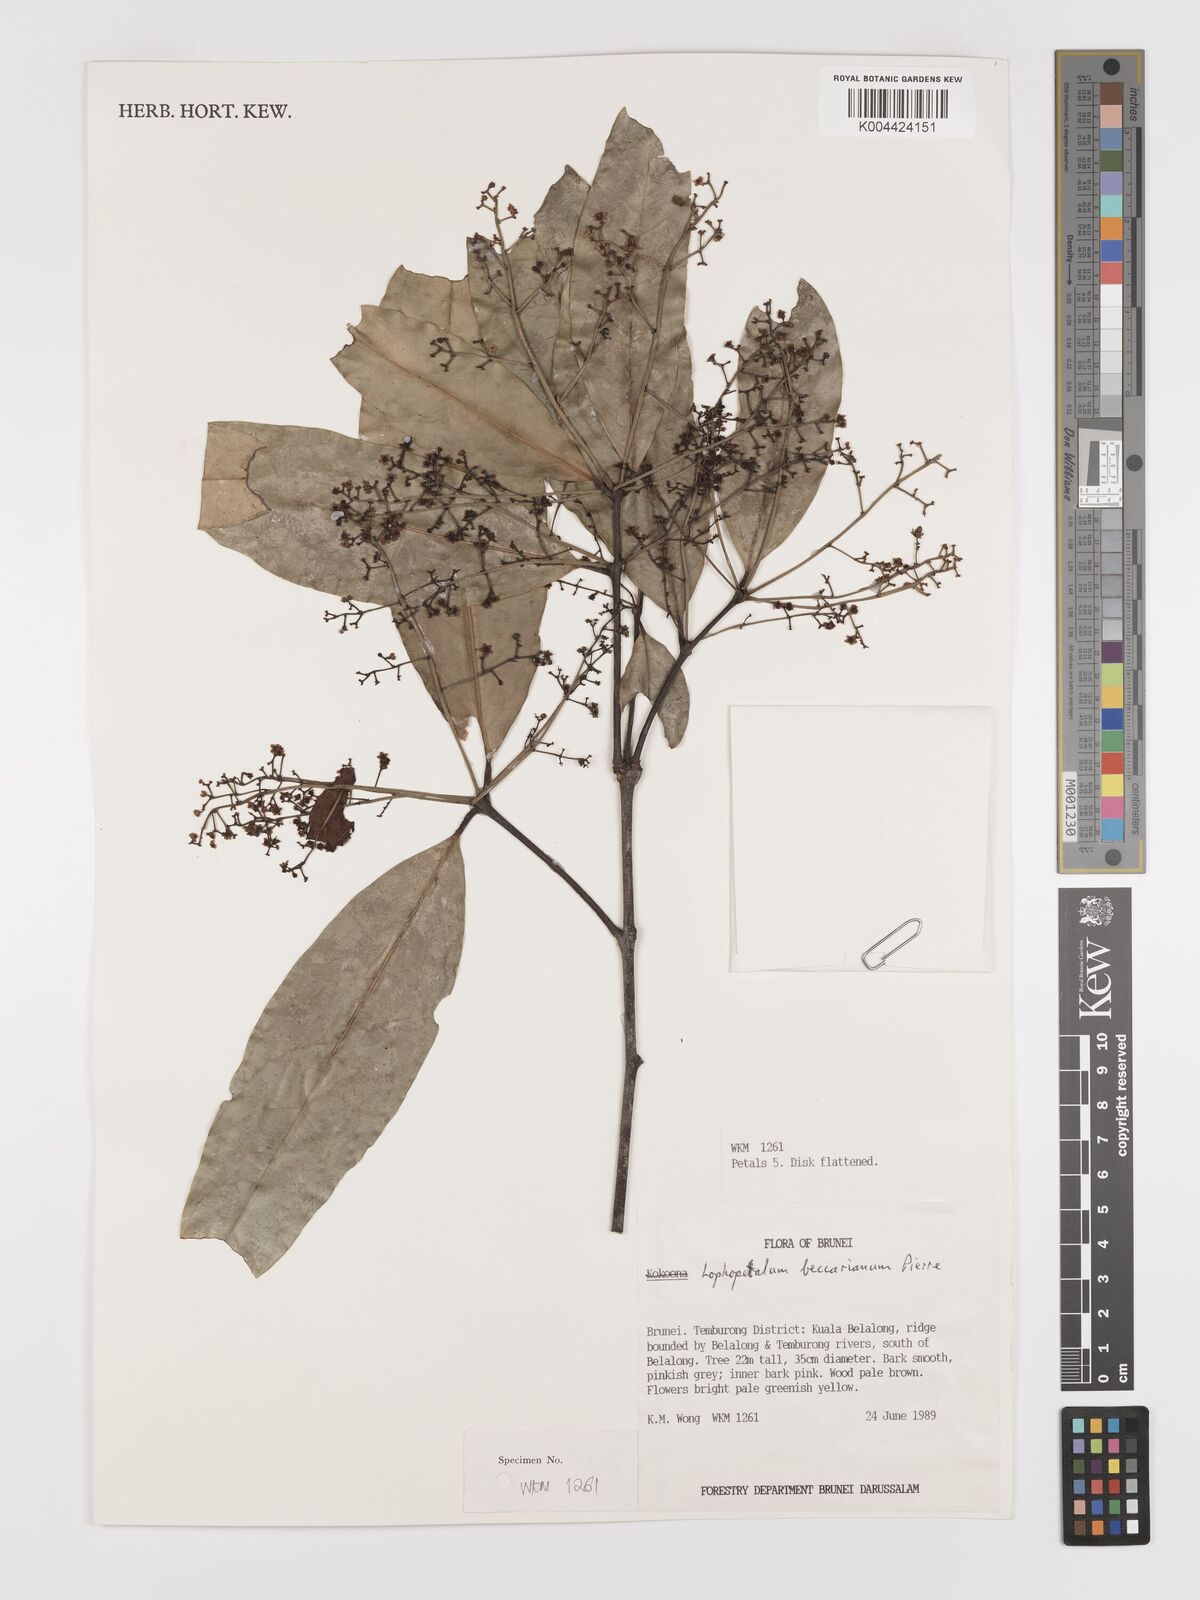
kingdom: Plantae
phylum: Tracheophyta
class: Magnoliopsida
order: Celastrales
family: Celastraceae
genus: Lophopetalum
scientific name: Lophopetalum beccarianum
